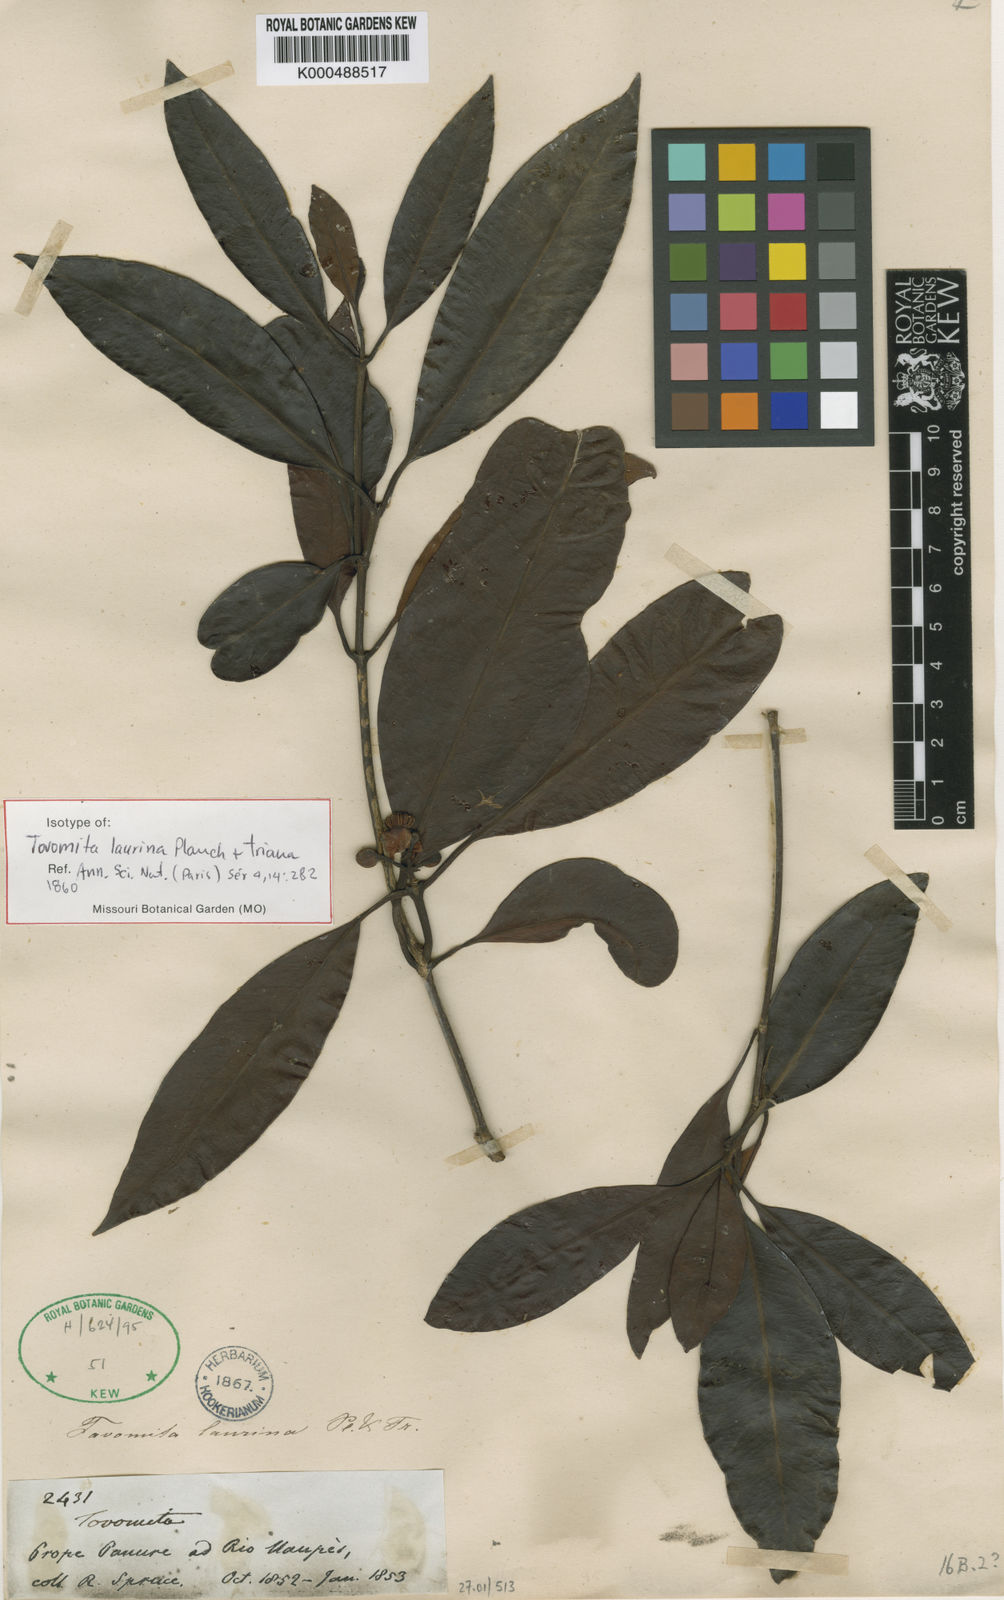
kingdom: Plantae
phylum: Tracheophyta
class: Magnoliopsida
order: Malpighiales
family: Clusiaceae
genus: Tovomita
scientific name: Tovomita laurina
